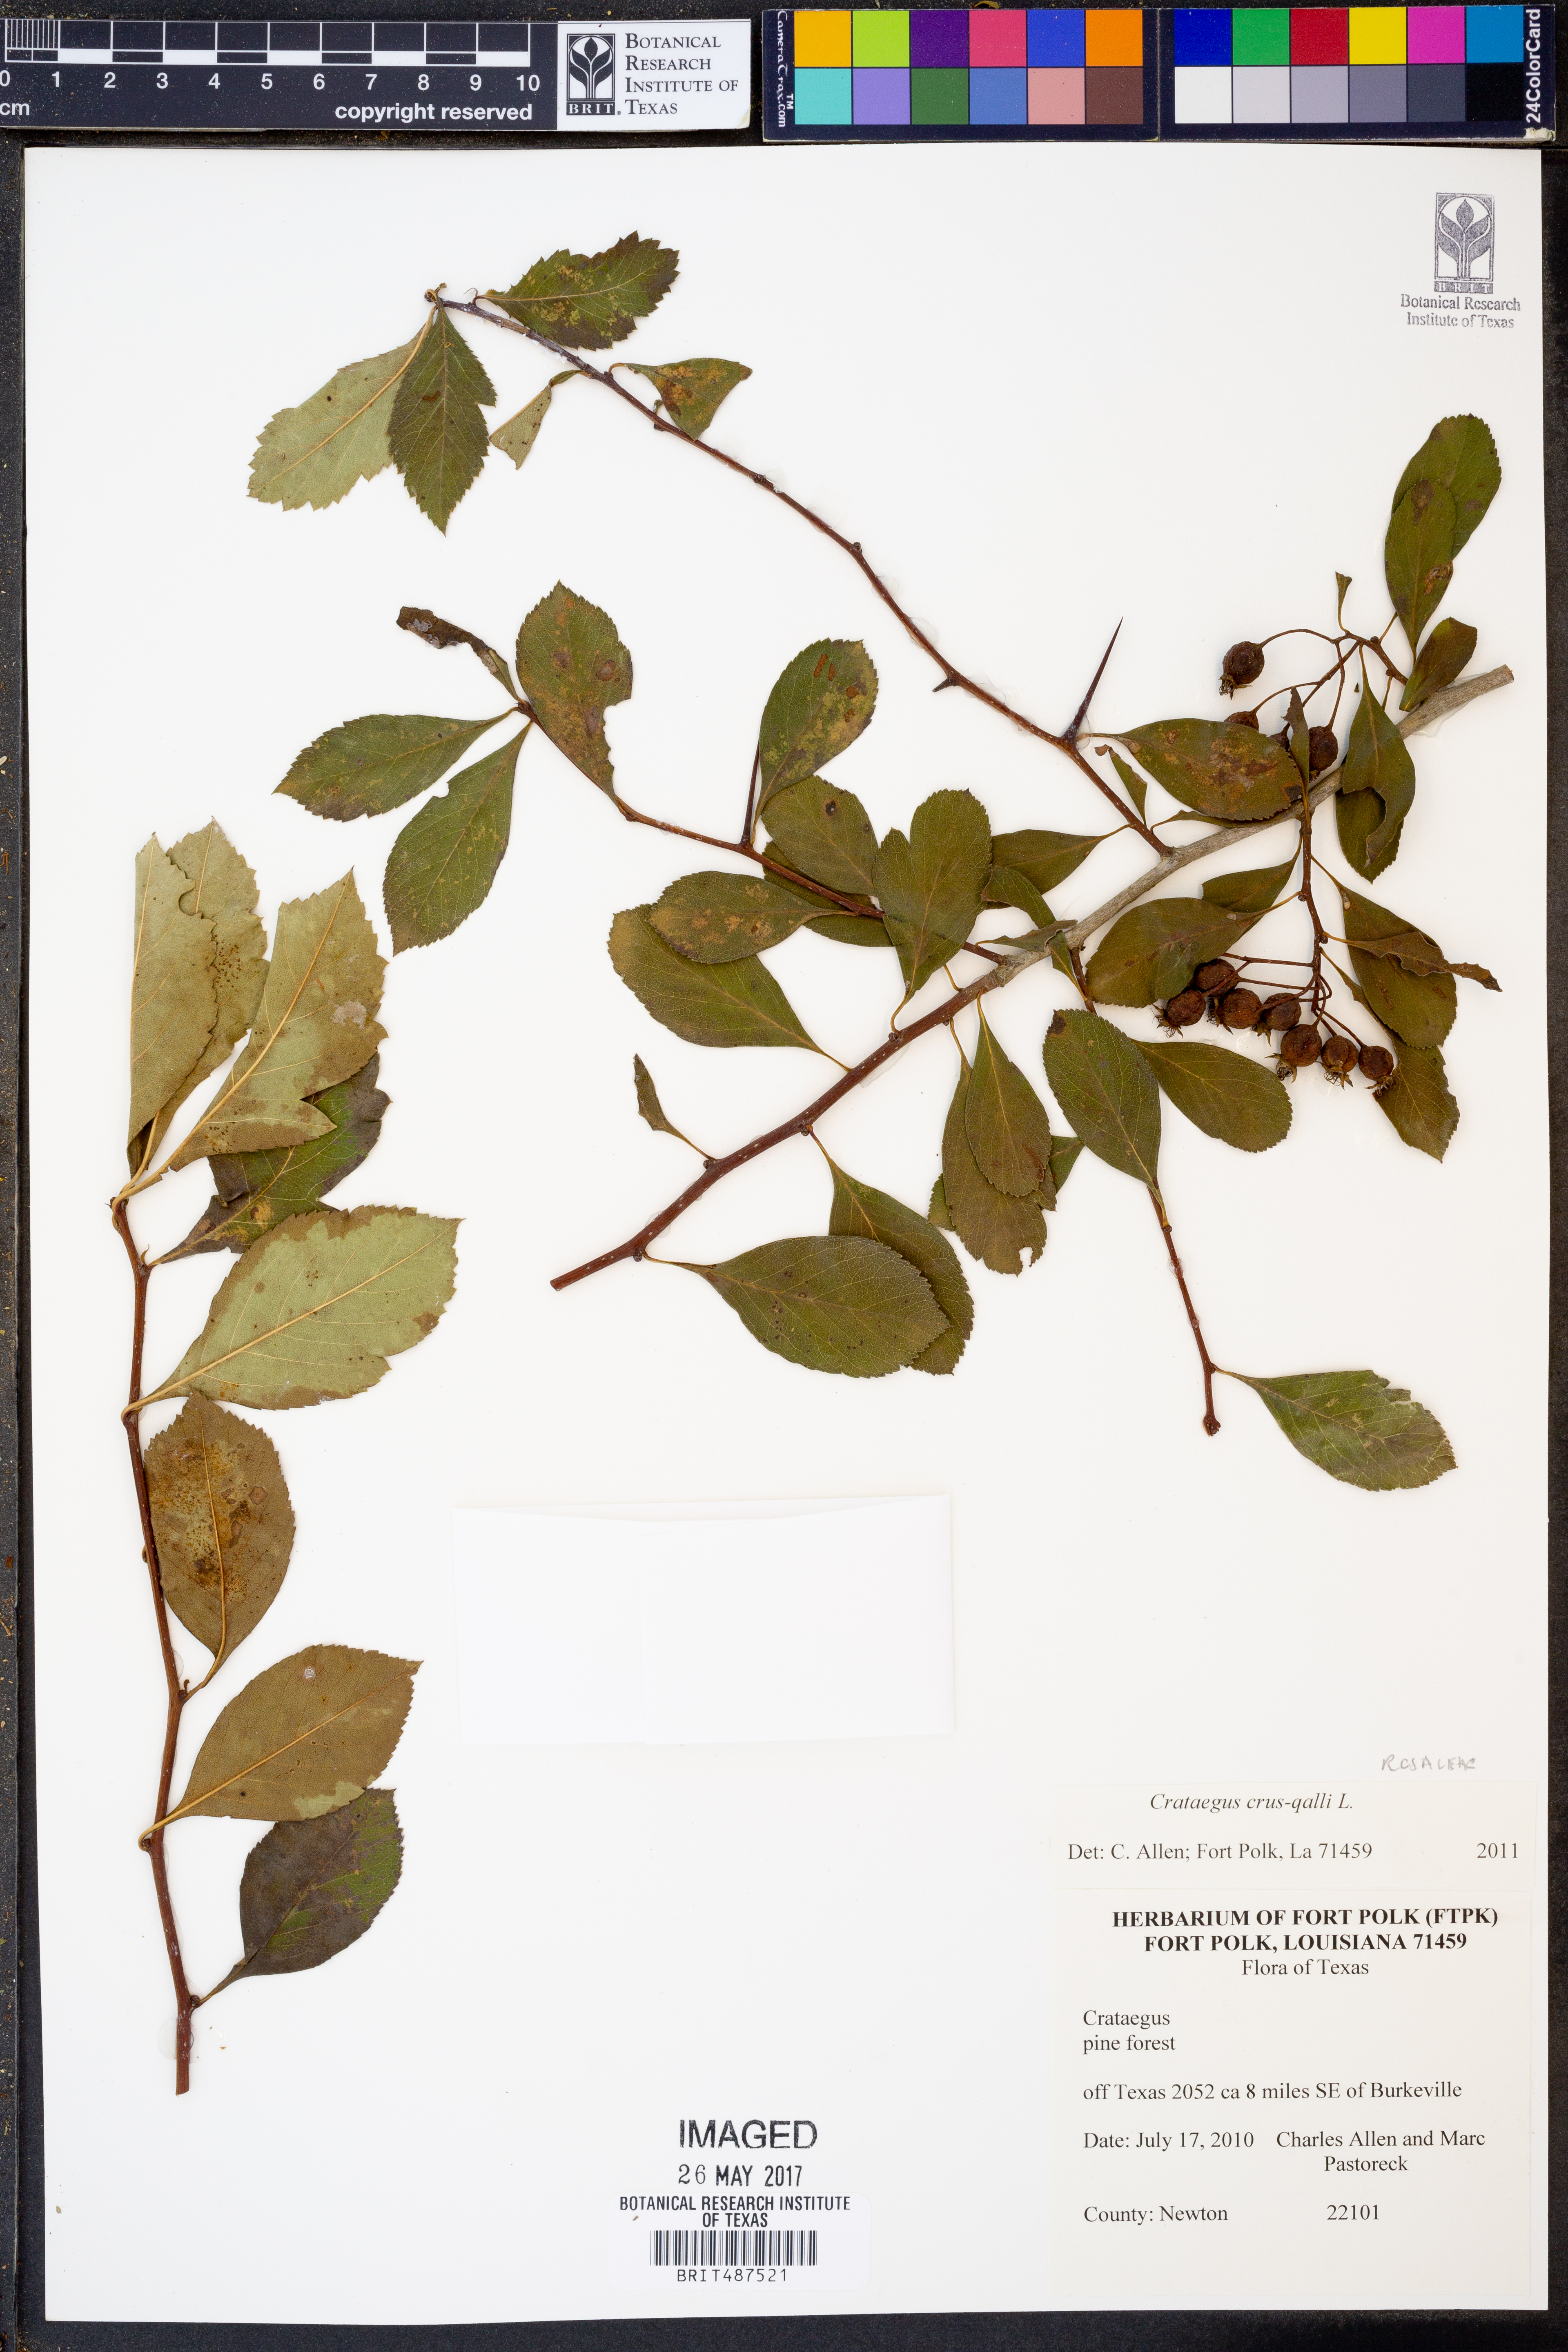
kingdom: Plantae
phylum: Tracheophyta
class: Magnoliopsida
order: Rosales
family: Rosaceae
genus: Crataegus
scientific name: Crataegus crus-galli
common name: Cockspurthorn
